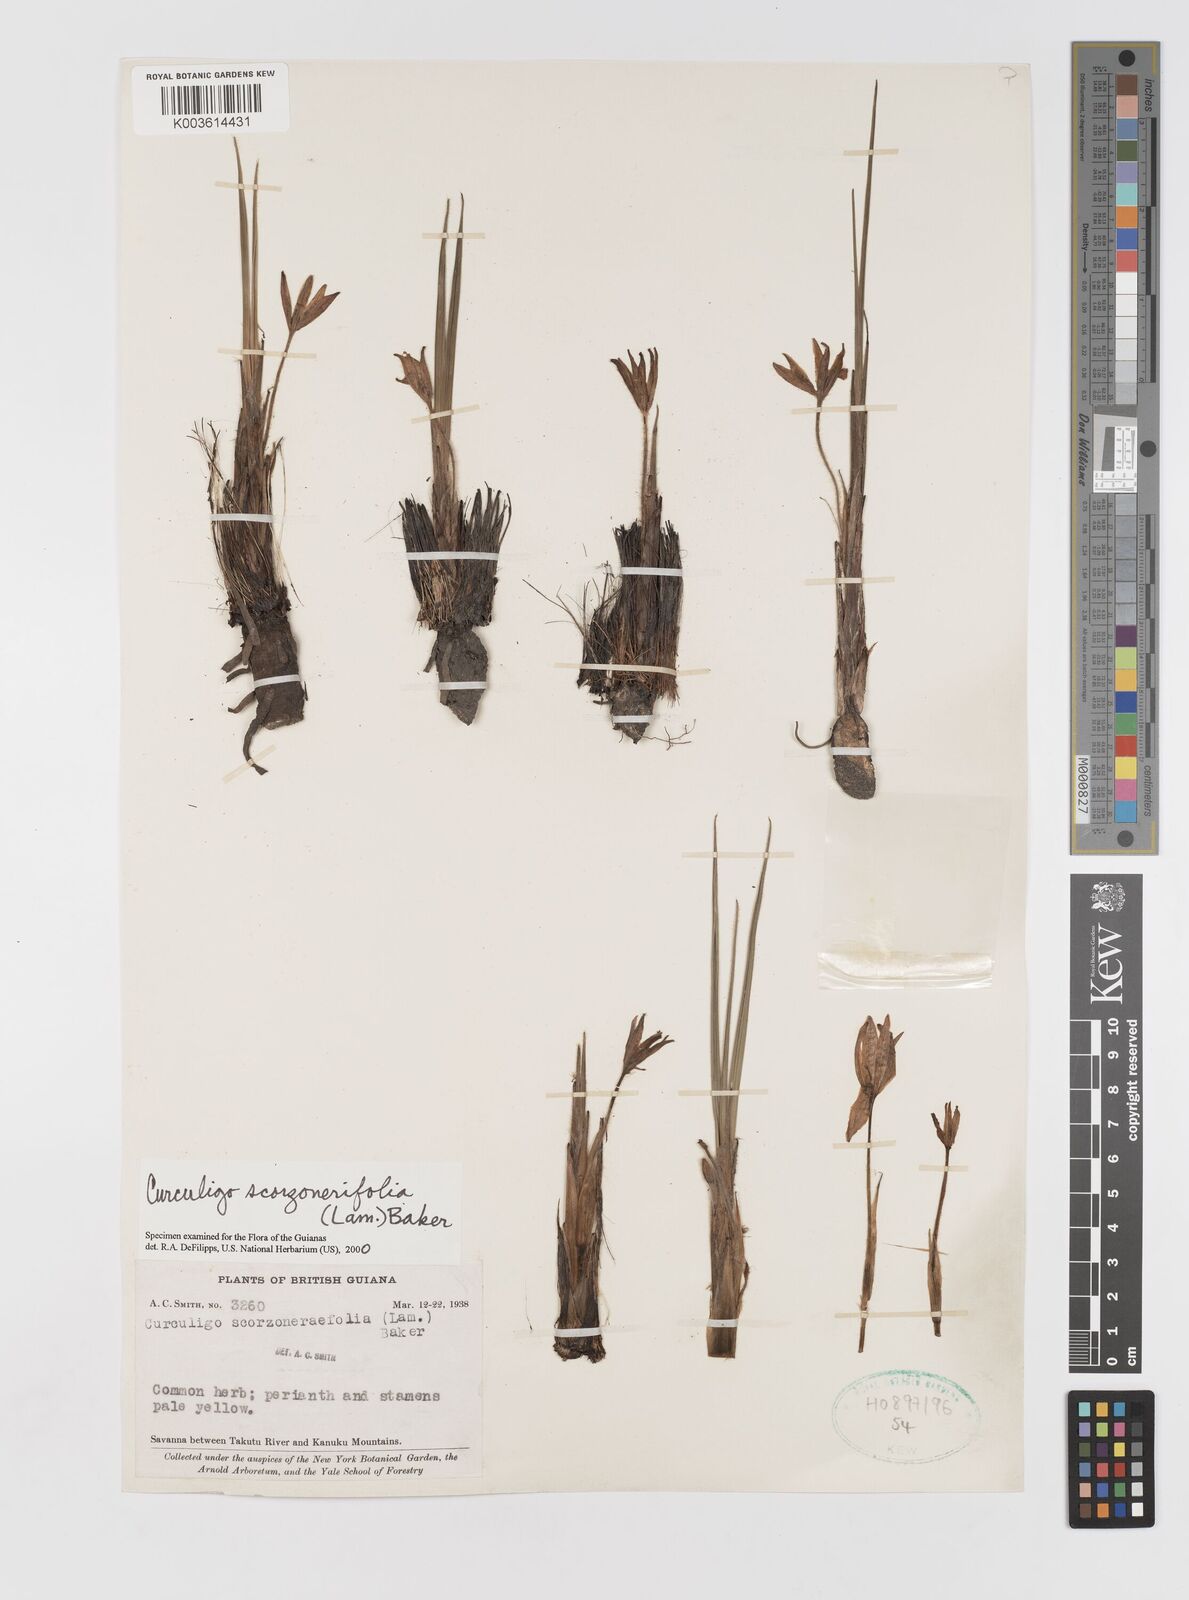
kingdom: Plantae
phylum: Tracheophyta
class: Liliopsida
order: Asparagales
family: Hypoxidaceae
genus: Curculigo
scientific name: Curculigo scorzonerifolia
